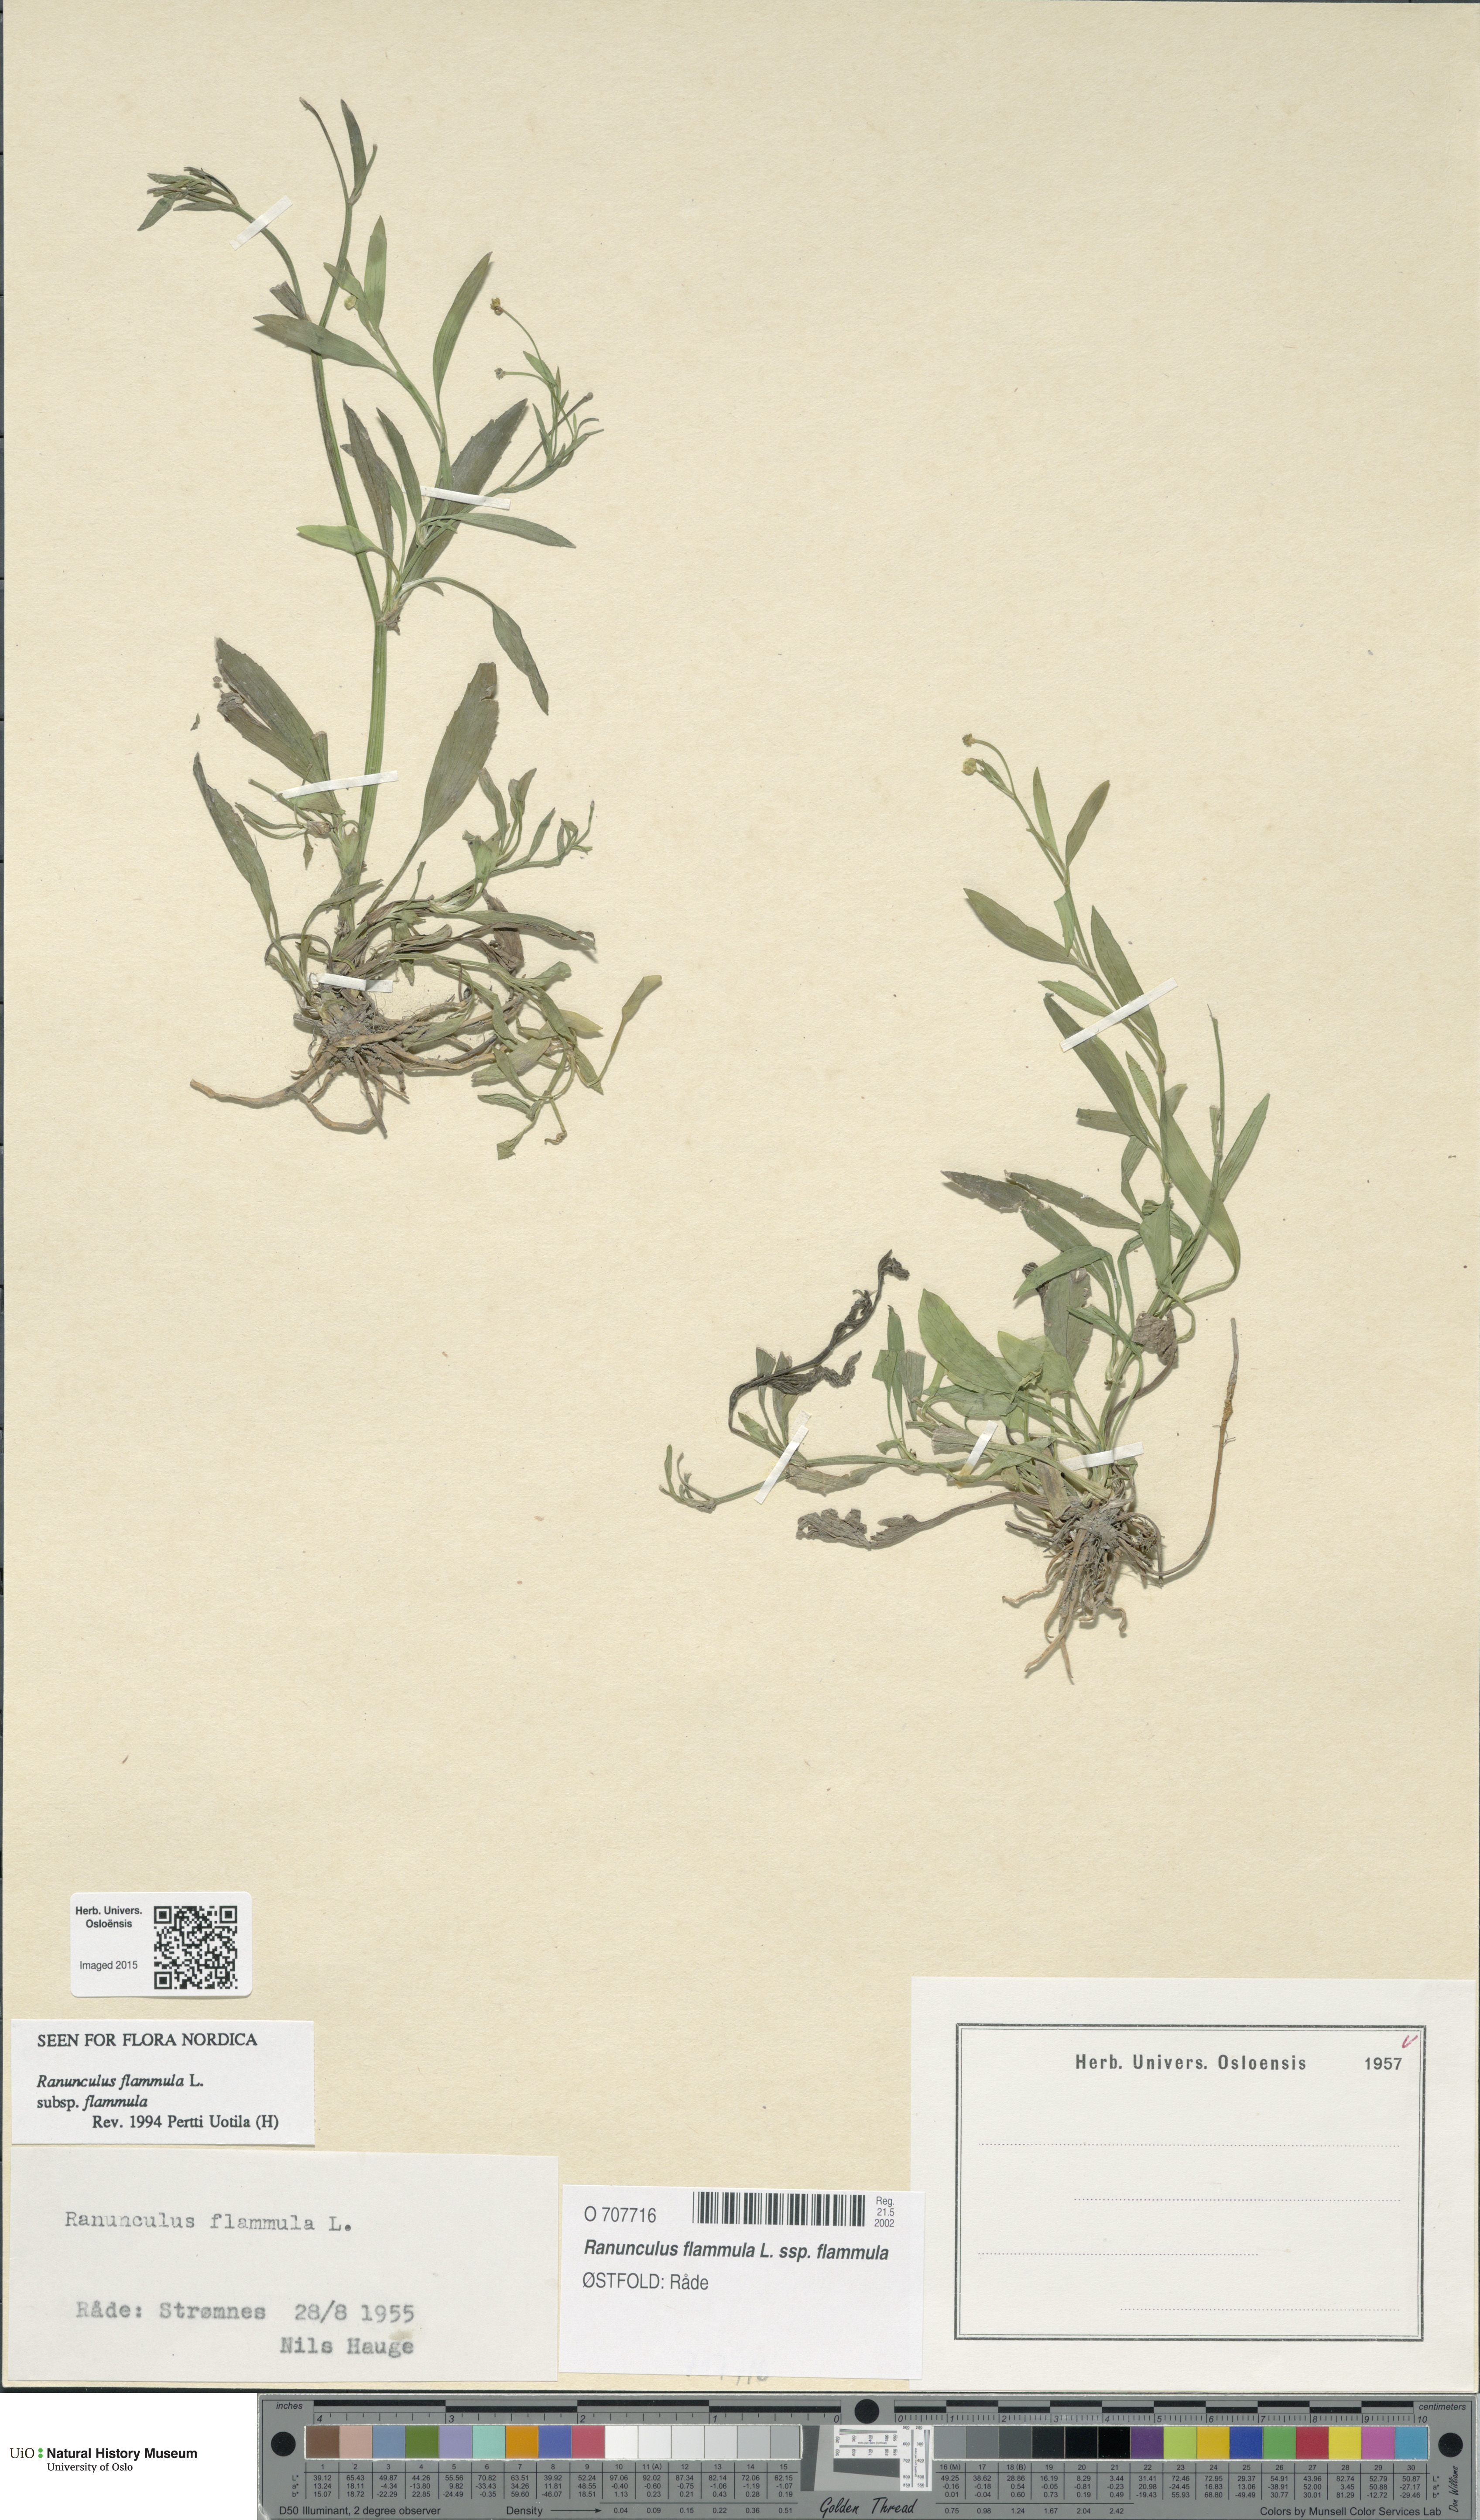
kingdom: Plantae
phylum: Tracheophyta
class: Magnoliopsida
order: Ranunculales
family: Ranunculaceae
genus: Ranunculus
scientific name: Ranunculus flammula
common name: Lesser spearwort
